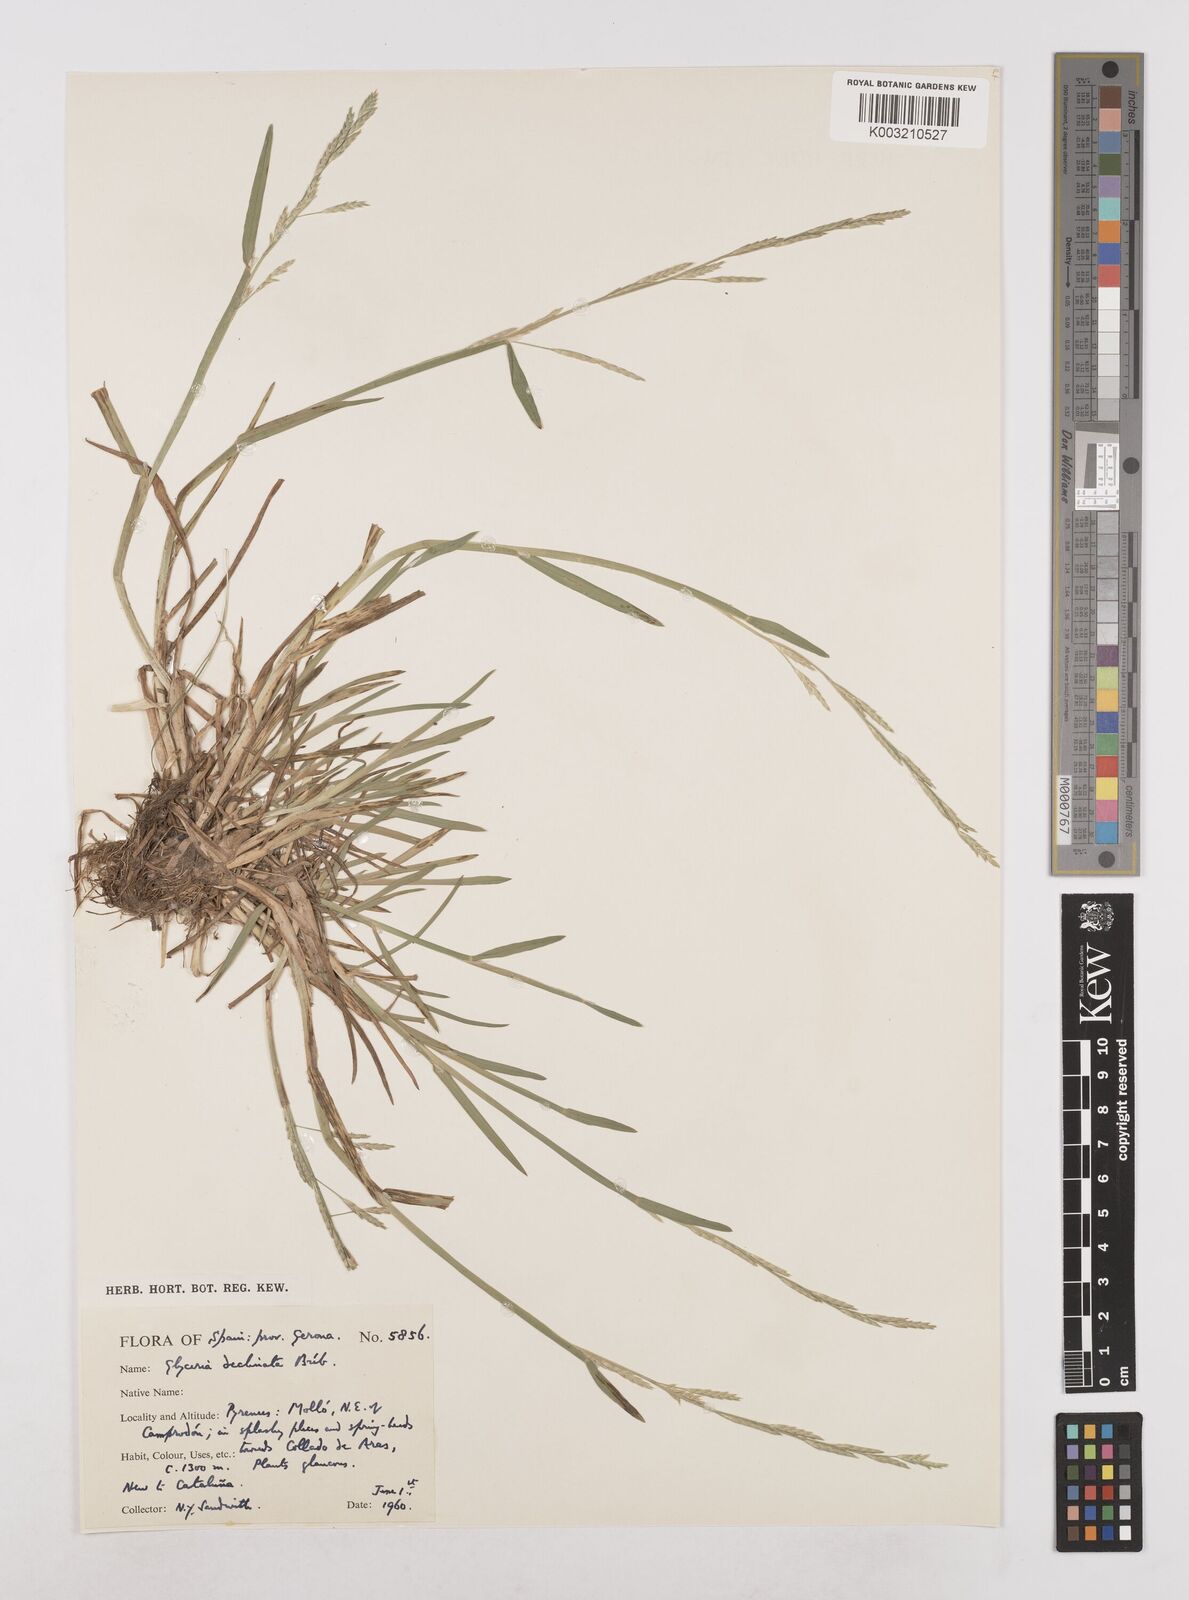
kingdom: Plantae
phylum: Tracheophyta
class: Liliopsida
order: Poales
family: Poaceae
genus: Glyceria
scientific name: Glyceria declinata
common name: Small sweet-grass
